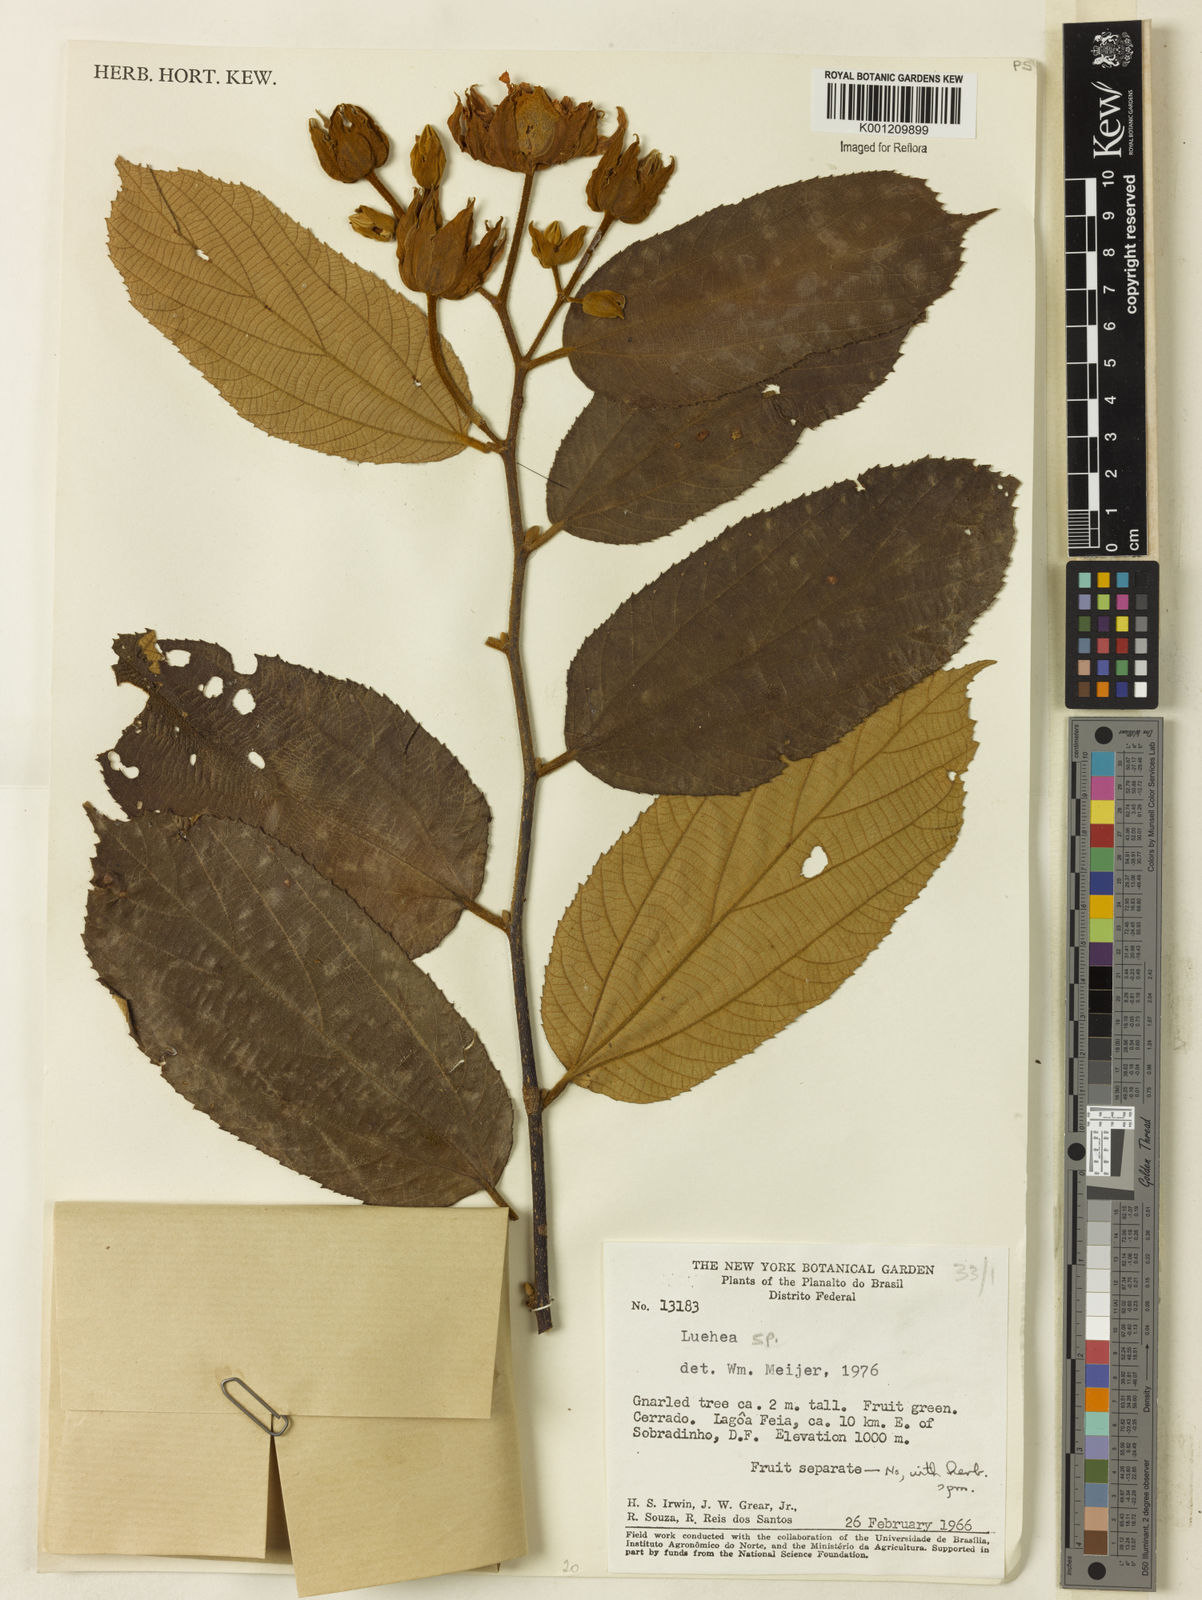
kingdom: Plantae
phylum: Tracheophyta
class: Magnoliopsida
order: Malvales
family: Malvaceae
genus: Luehea
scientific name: Luehea
